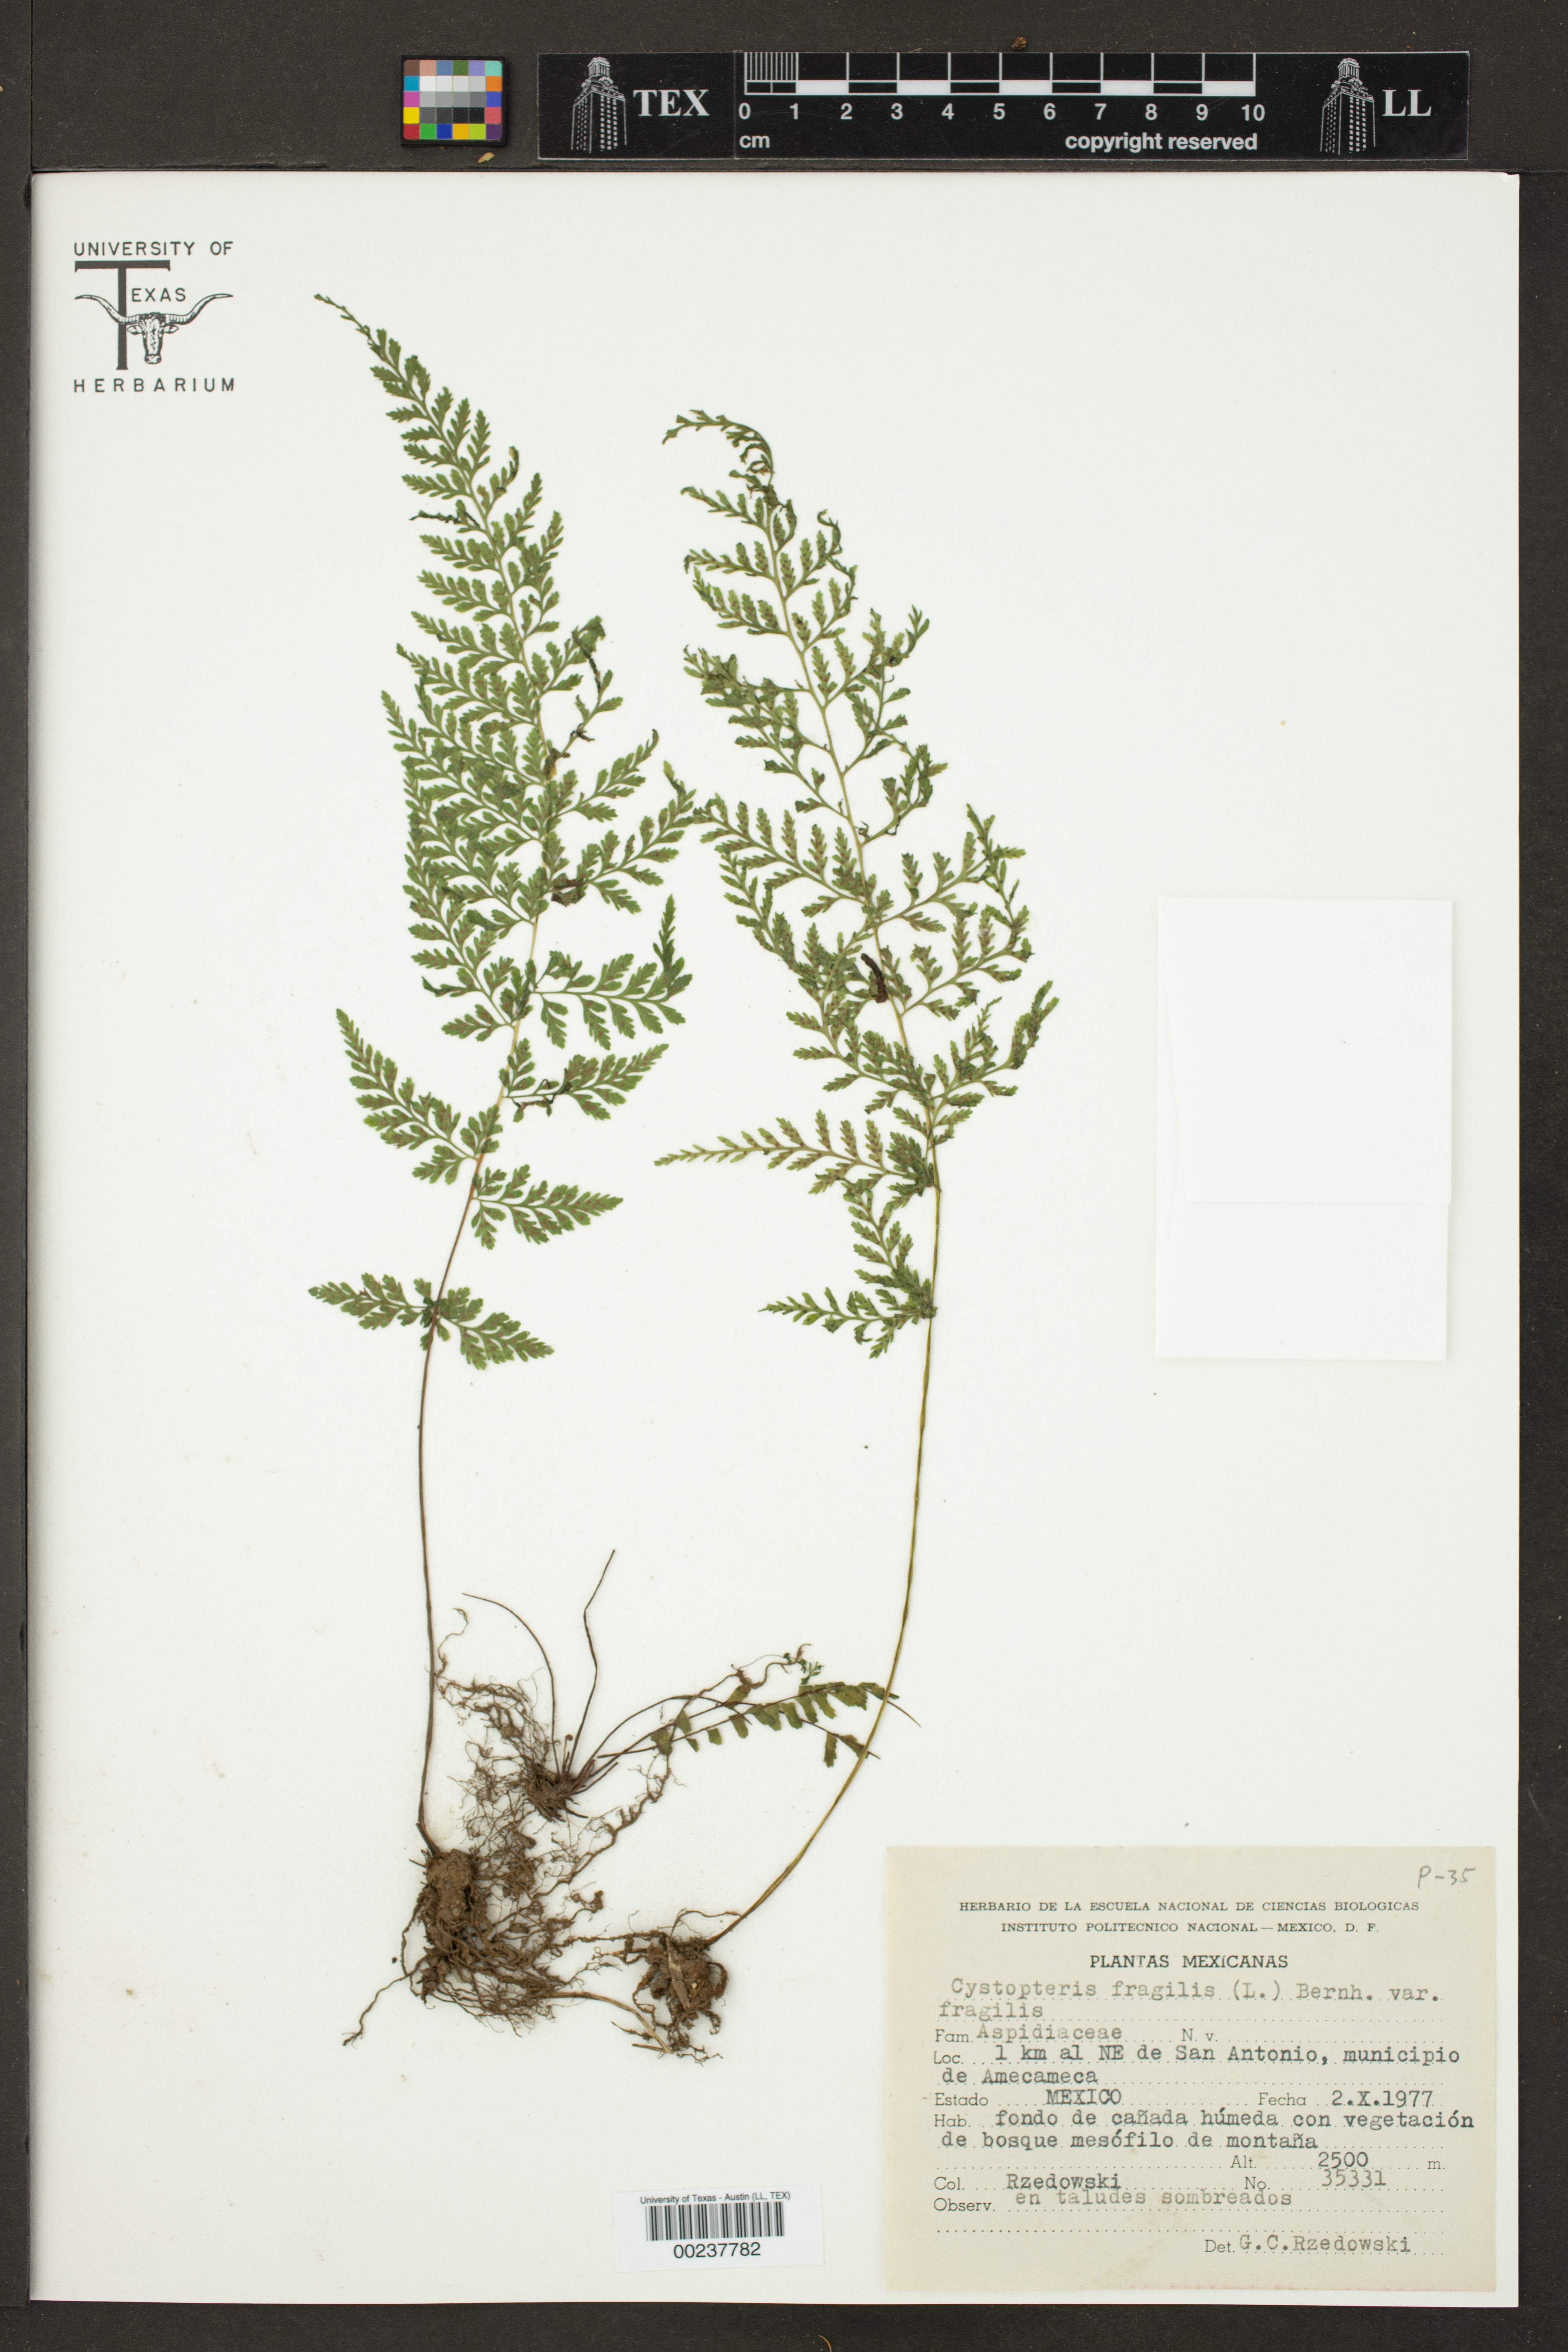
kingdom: Plantae
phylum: Tracheophyta
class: Polypodiopsida
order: Polypodiales
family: Cystopteridaceae
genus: Cystopteris
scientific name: Cystopteris fragilis
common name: Brittle bladder fern
